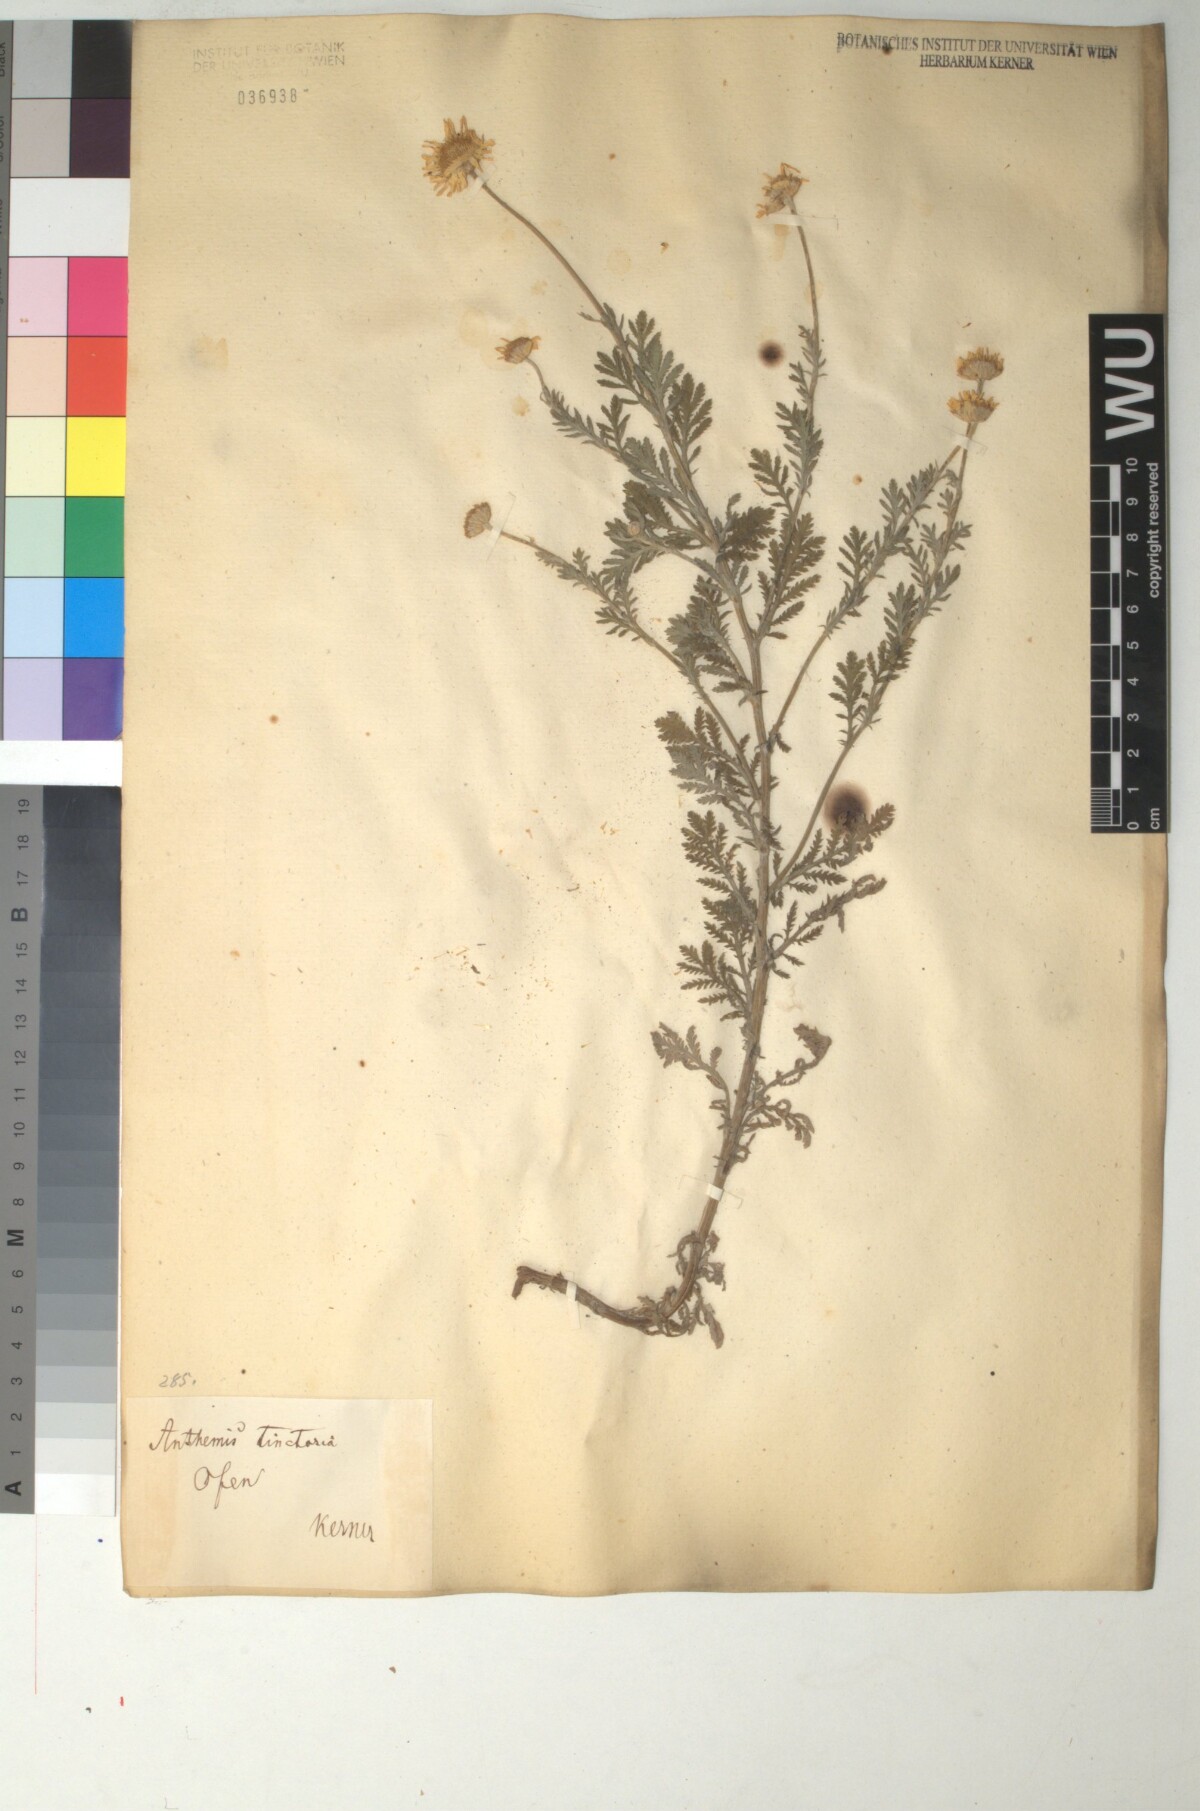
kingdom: Plantae
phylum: Tracheophyta
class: Magnoliopsida
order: Asterales
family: Asteraceae
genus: Cota
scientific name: Cota triumfetti
